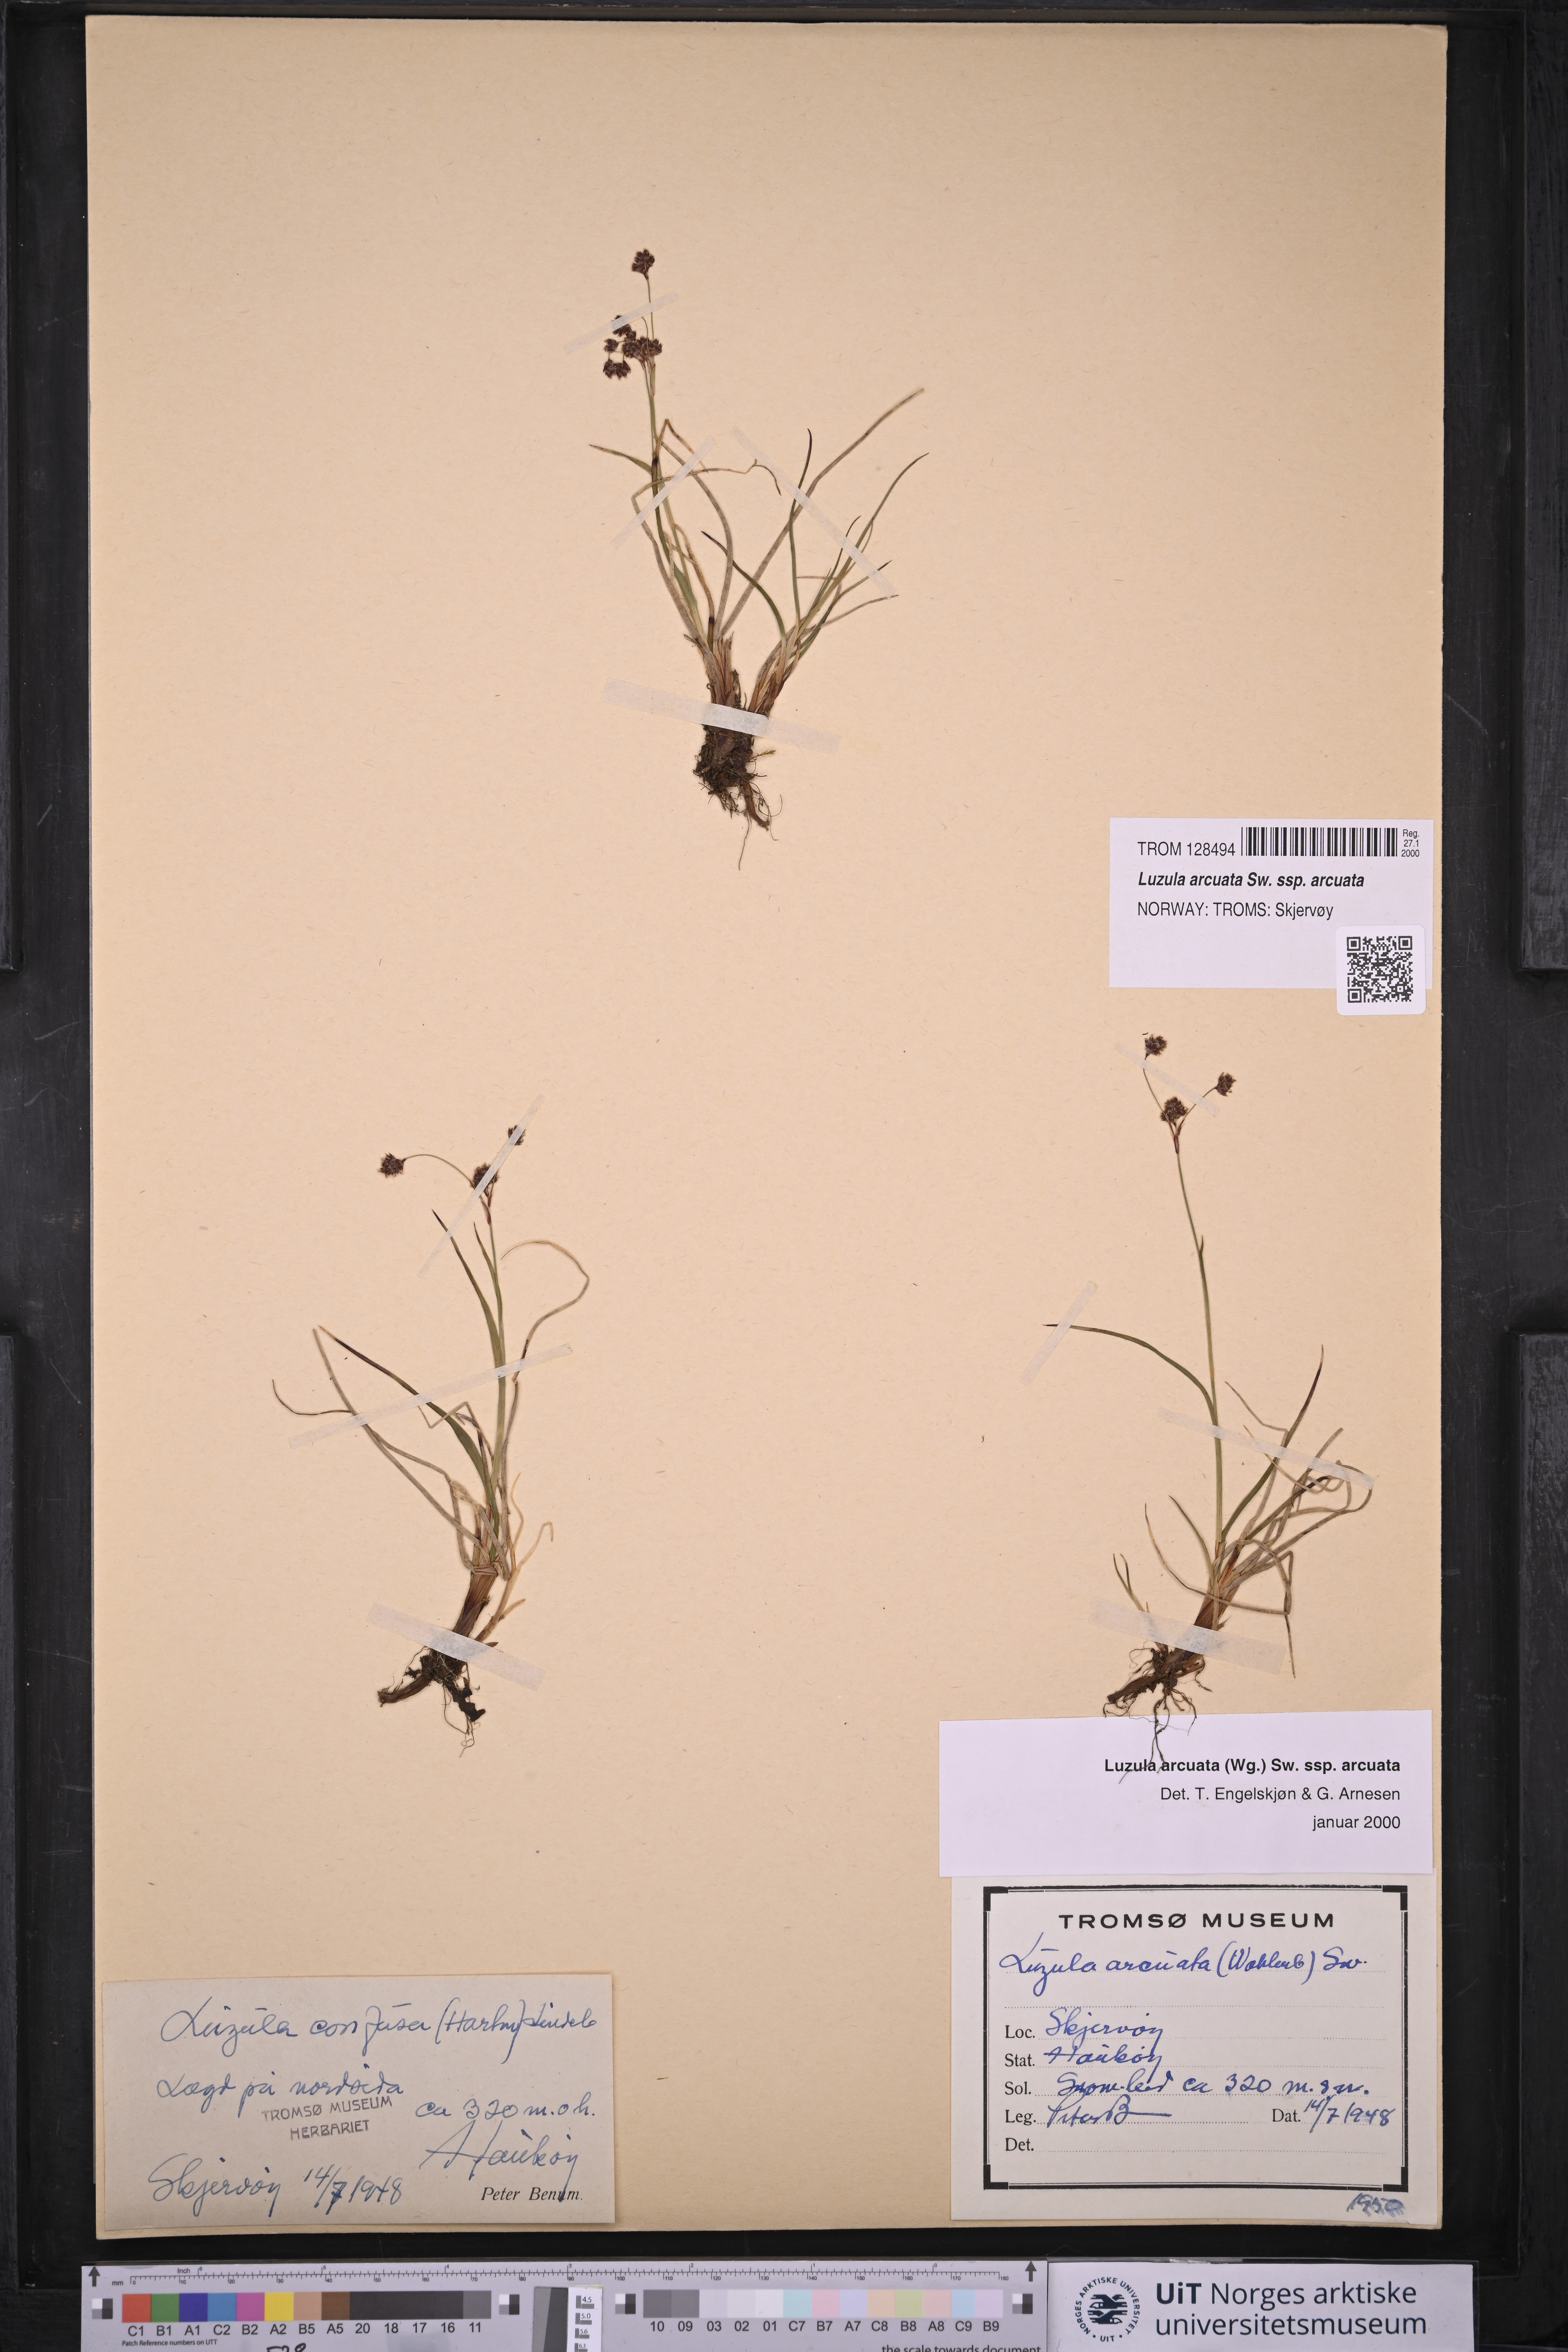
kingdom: Plantae
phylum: Tracheophyta
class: Liliopsida
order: Poales
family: Juncaceae
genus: Luzula
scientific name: Luzula arcuata
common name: Curved wood-rush
